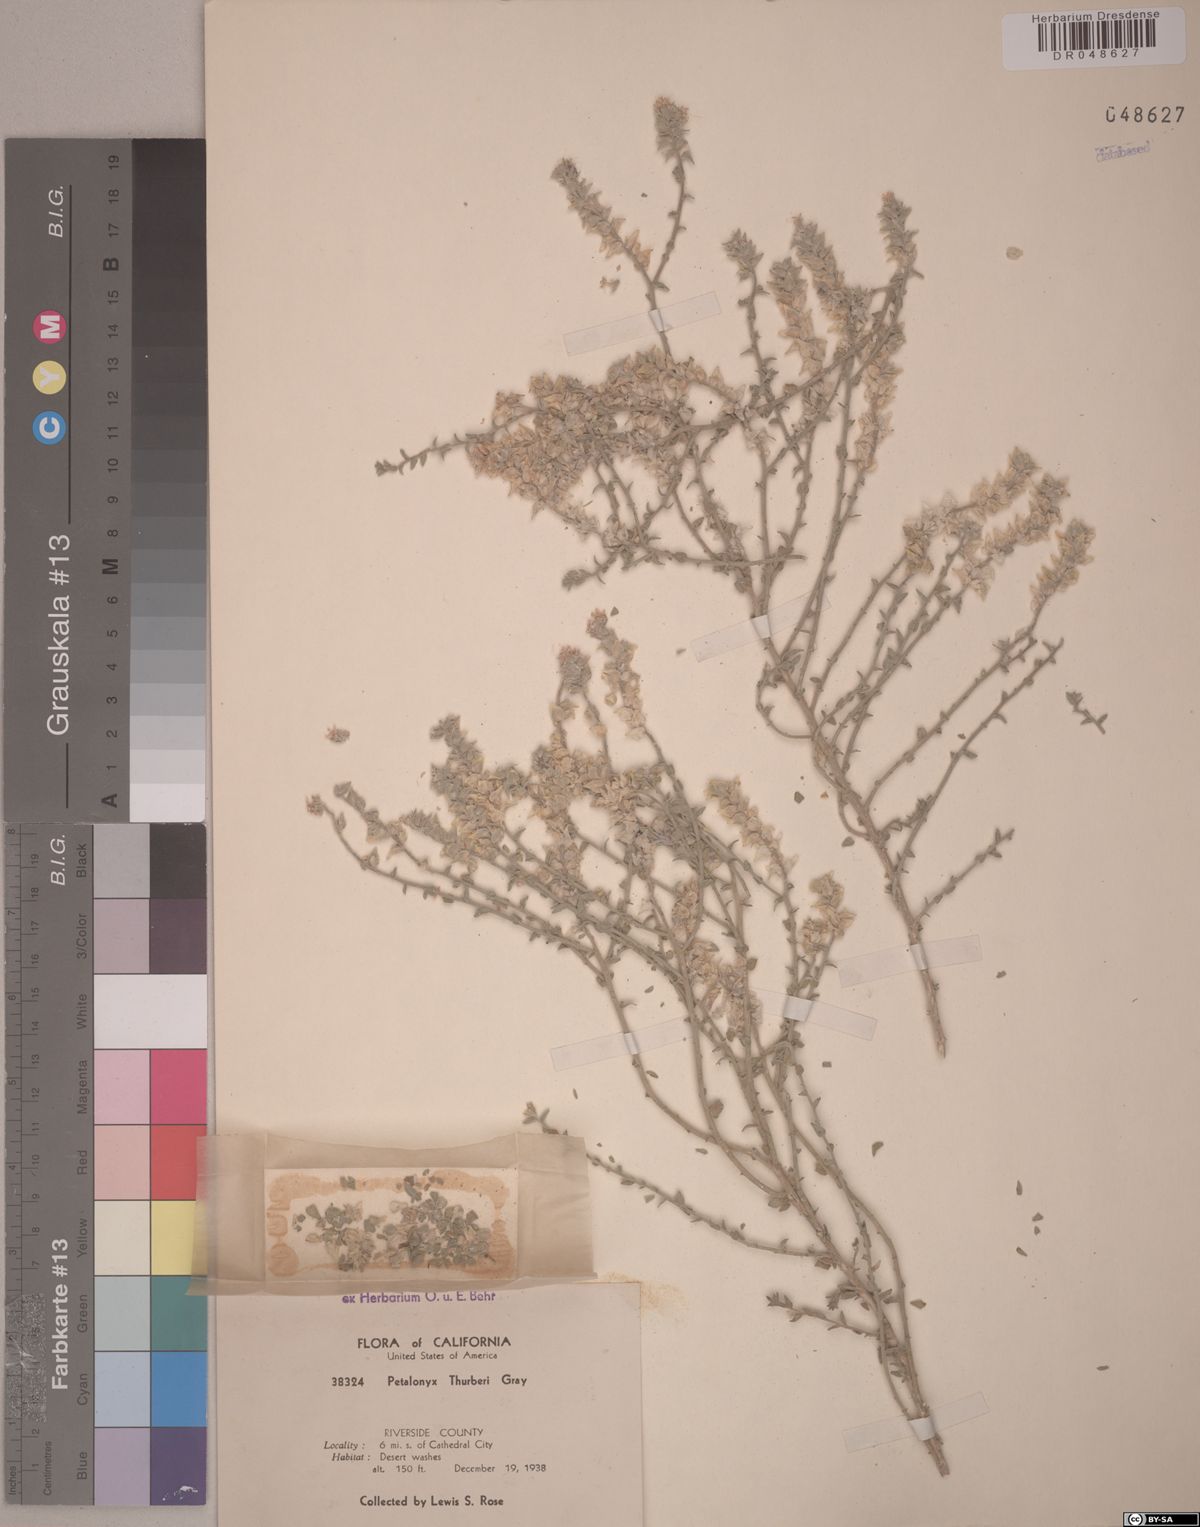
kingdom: Plantae
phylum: Tracheophyta
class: Magnoliopsida
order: Cornales
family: Loasaceae
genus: Petalonyx
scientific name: Petalonyx thurberi
